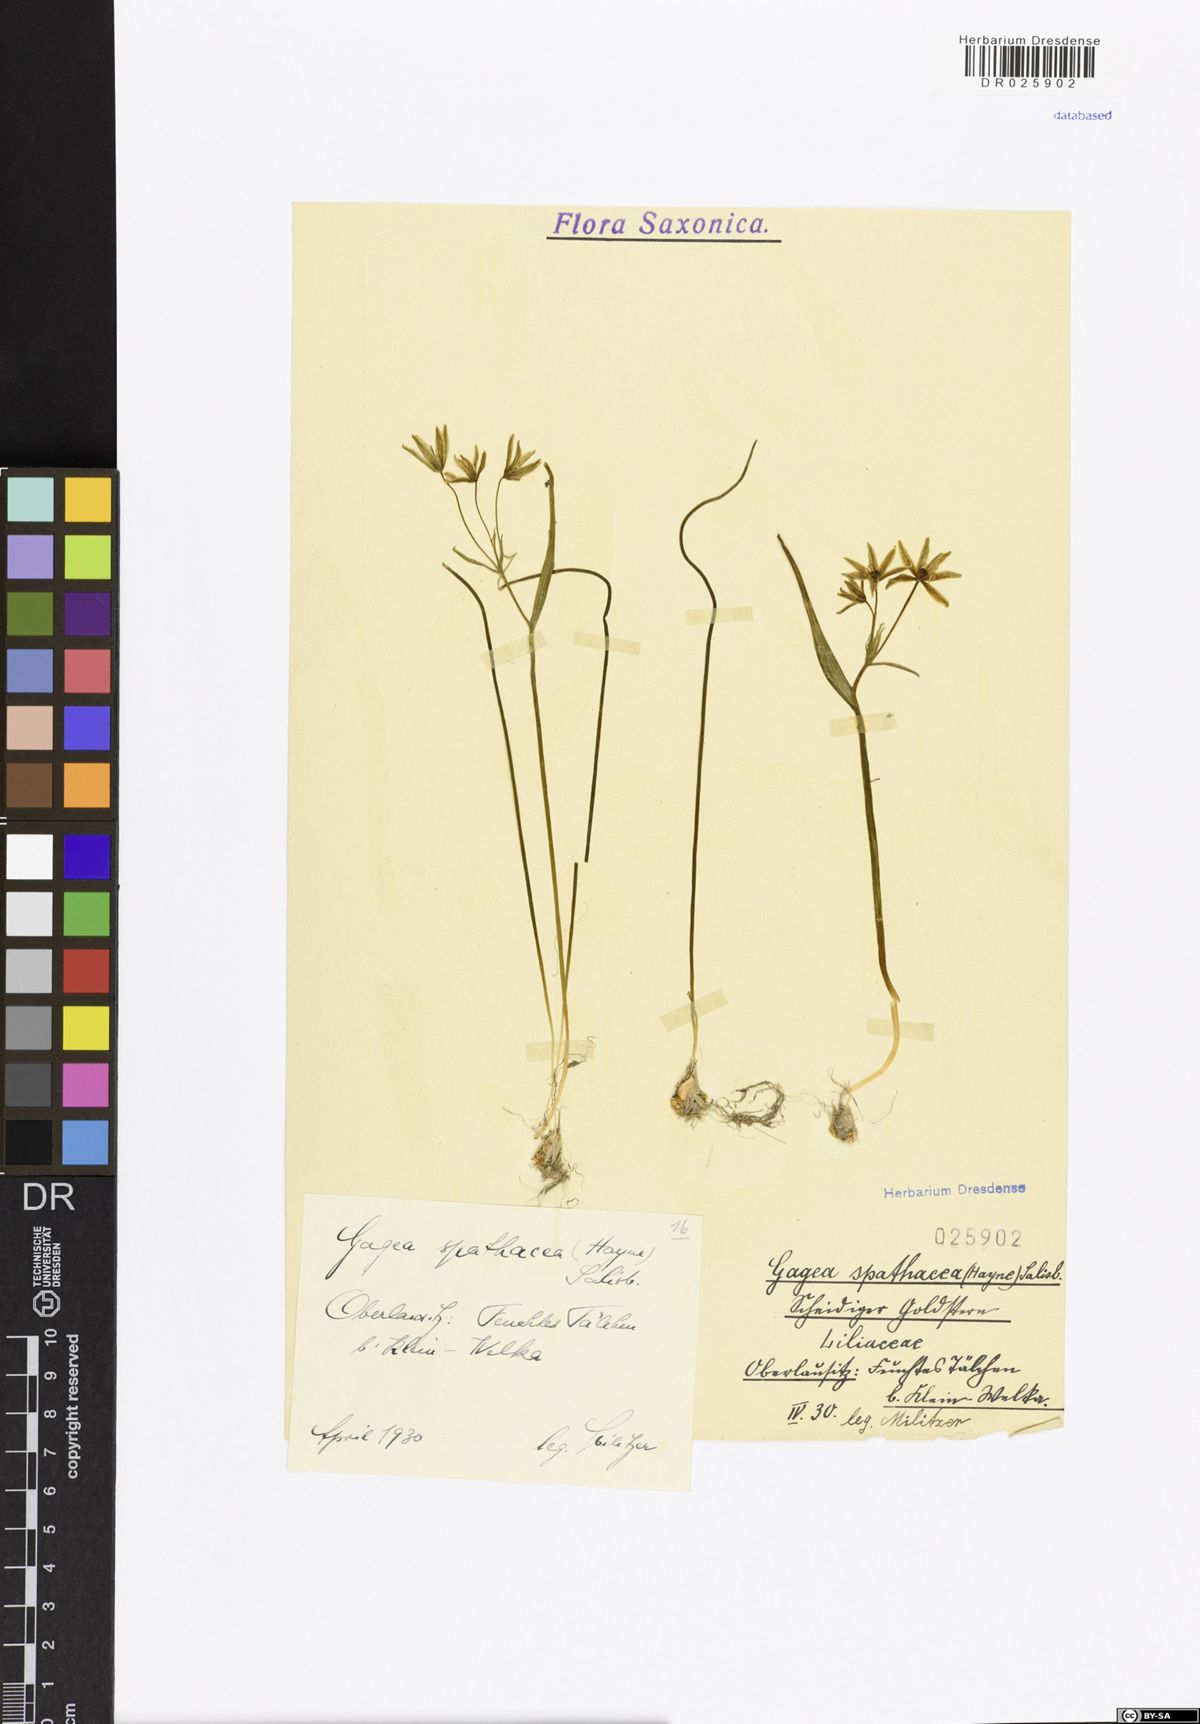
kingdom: Plantae
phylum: Tracheophyta
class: Liliopsida
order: Liliales
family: Liliaceae
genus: Gagea
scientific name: Gagea spathacea
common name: Belgian gagea
